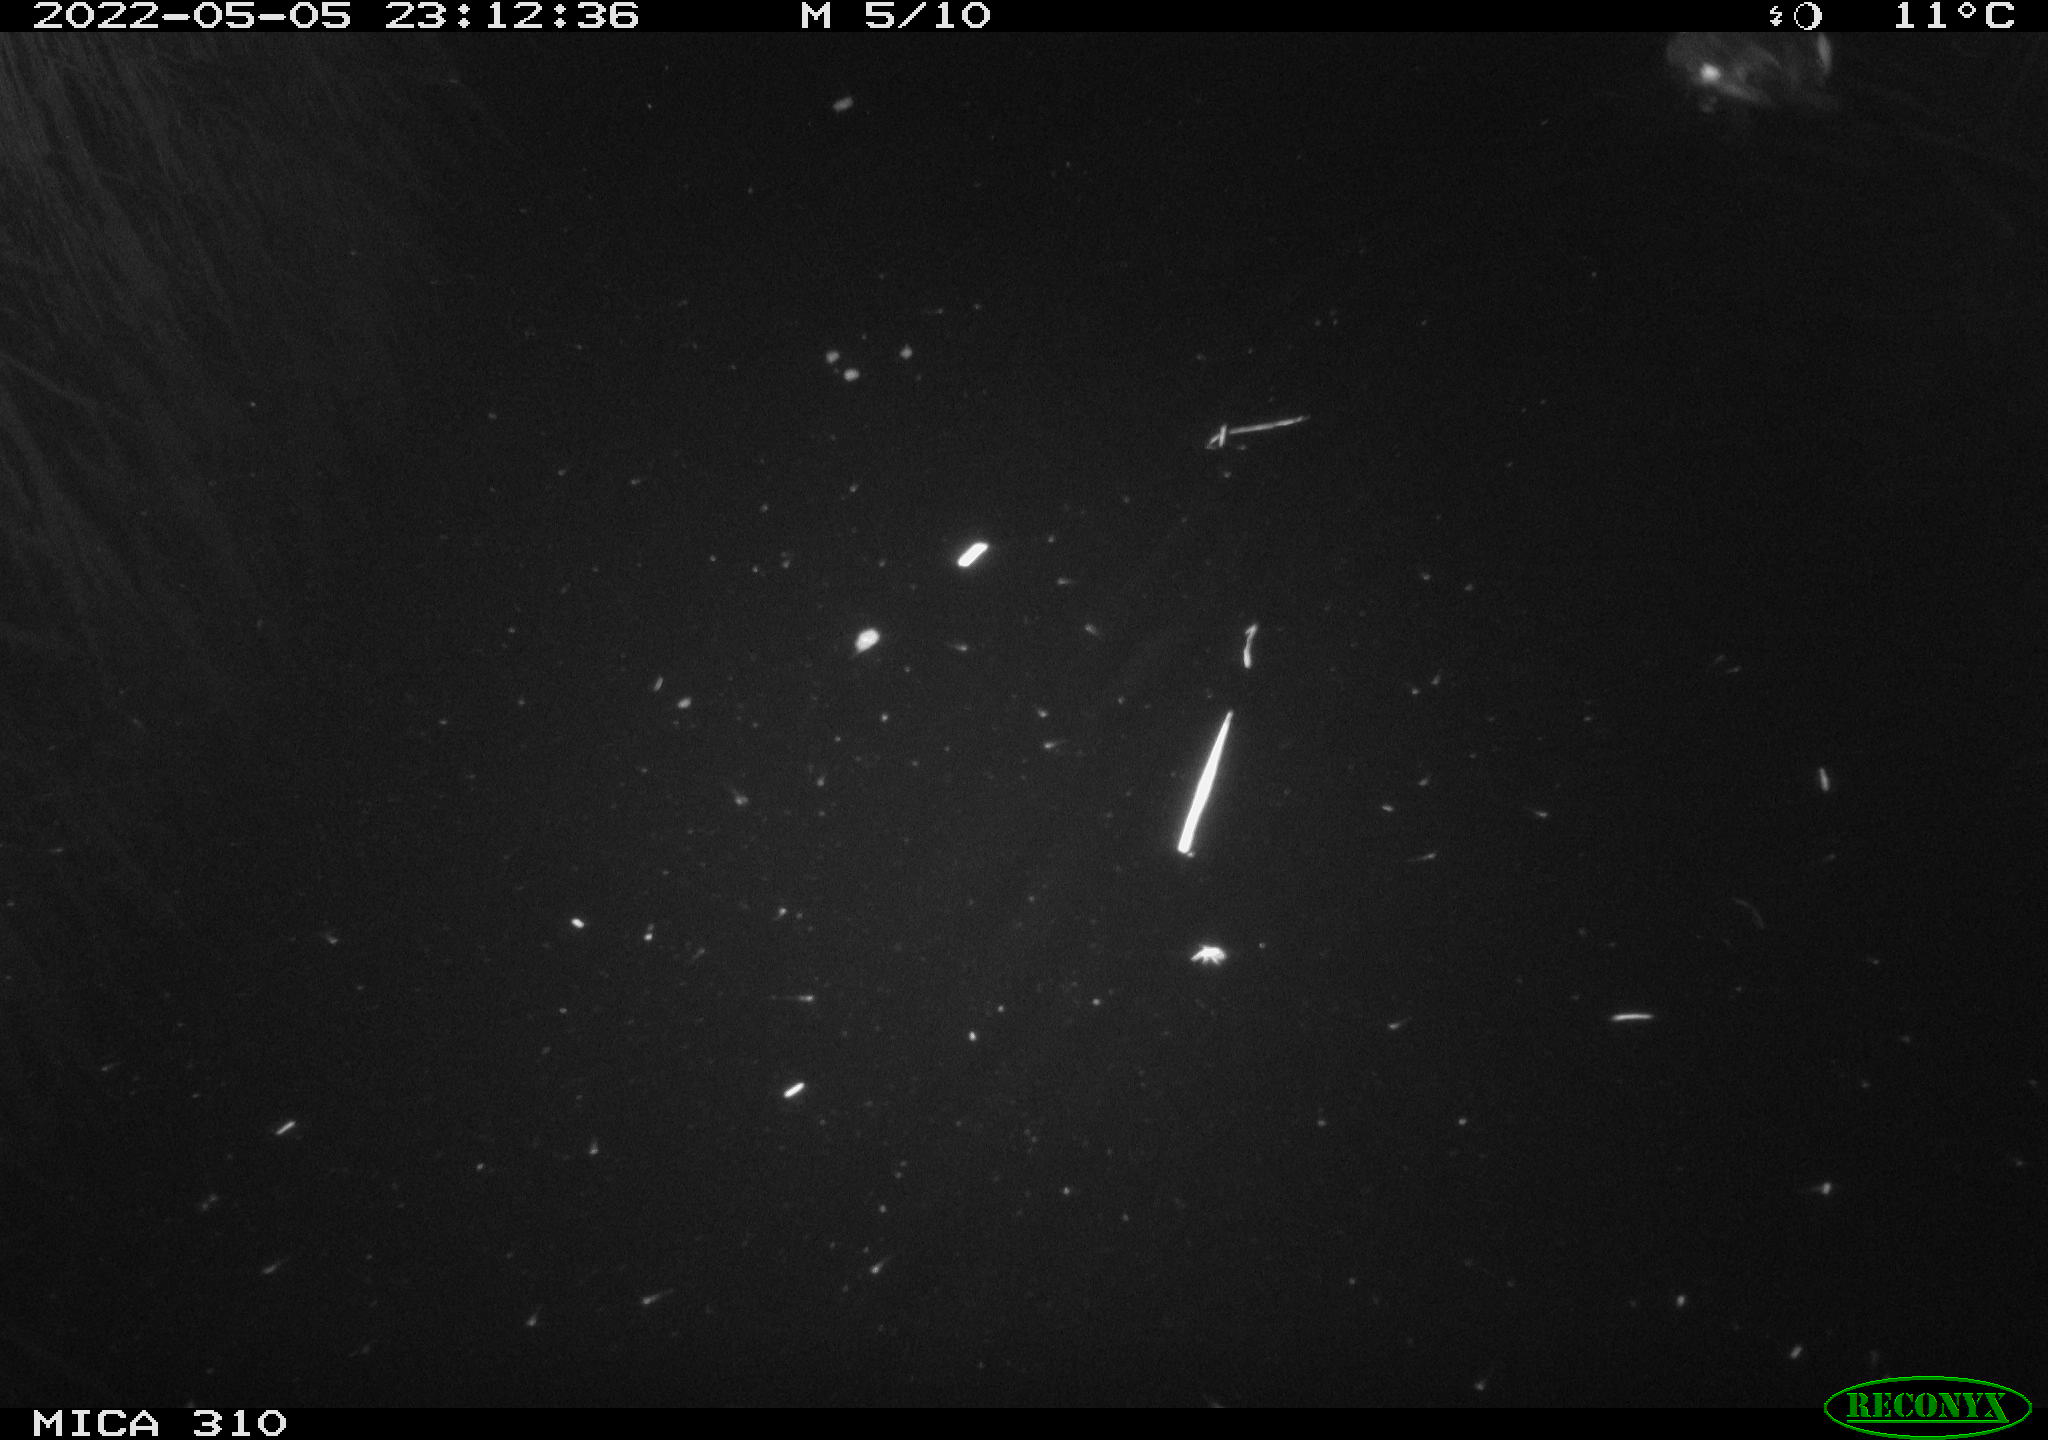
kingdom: Animalia
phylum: Chordata
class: Aves
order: Anseriformes
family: Anatidae
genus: Mareca
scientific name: Mareca strepera
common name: Gadwall
